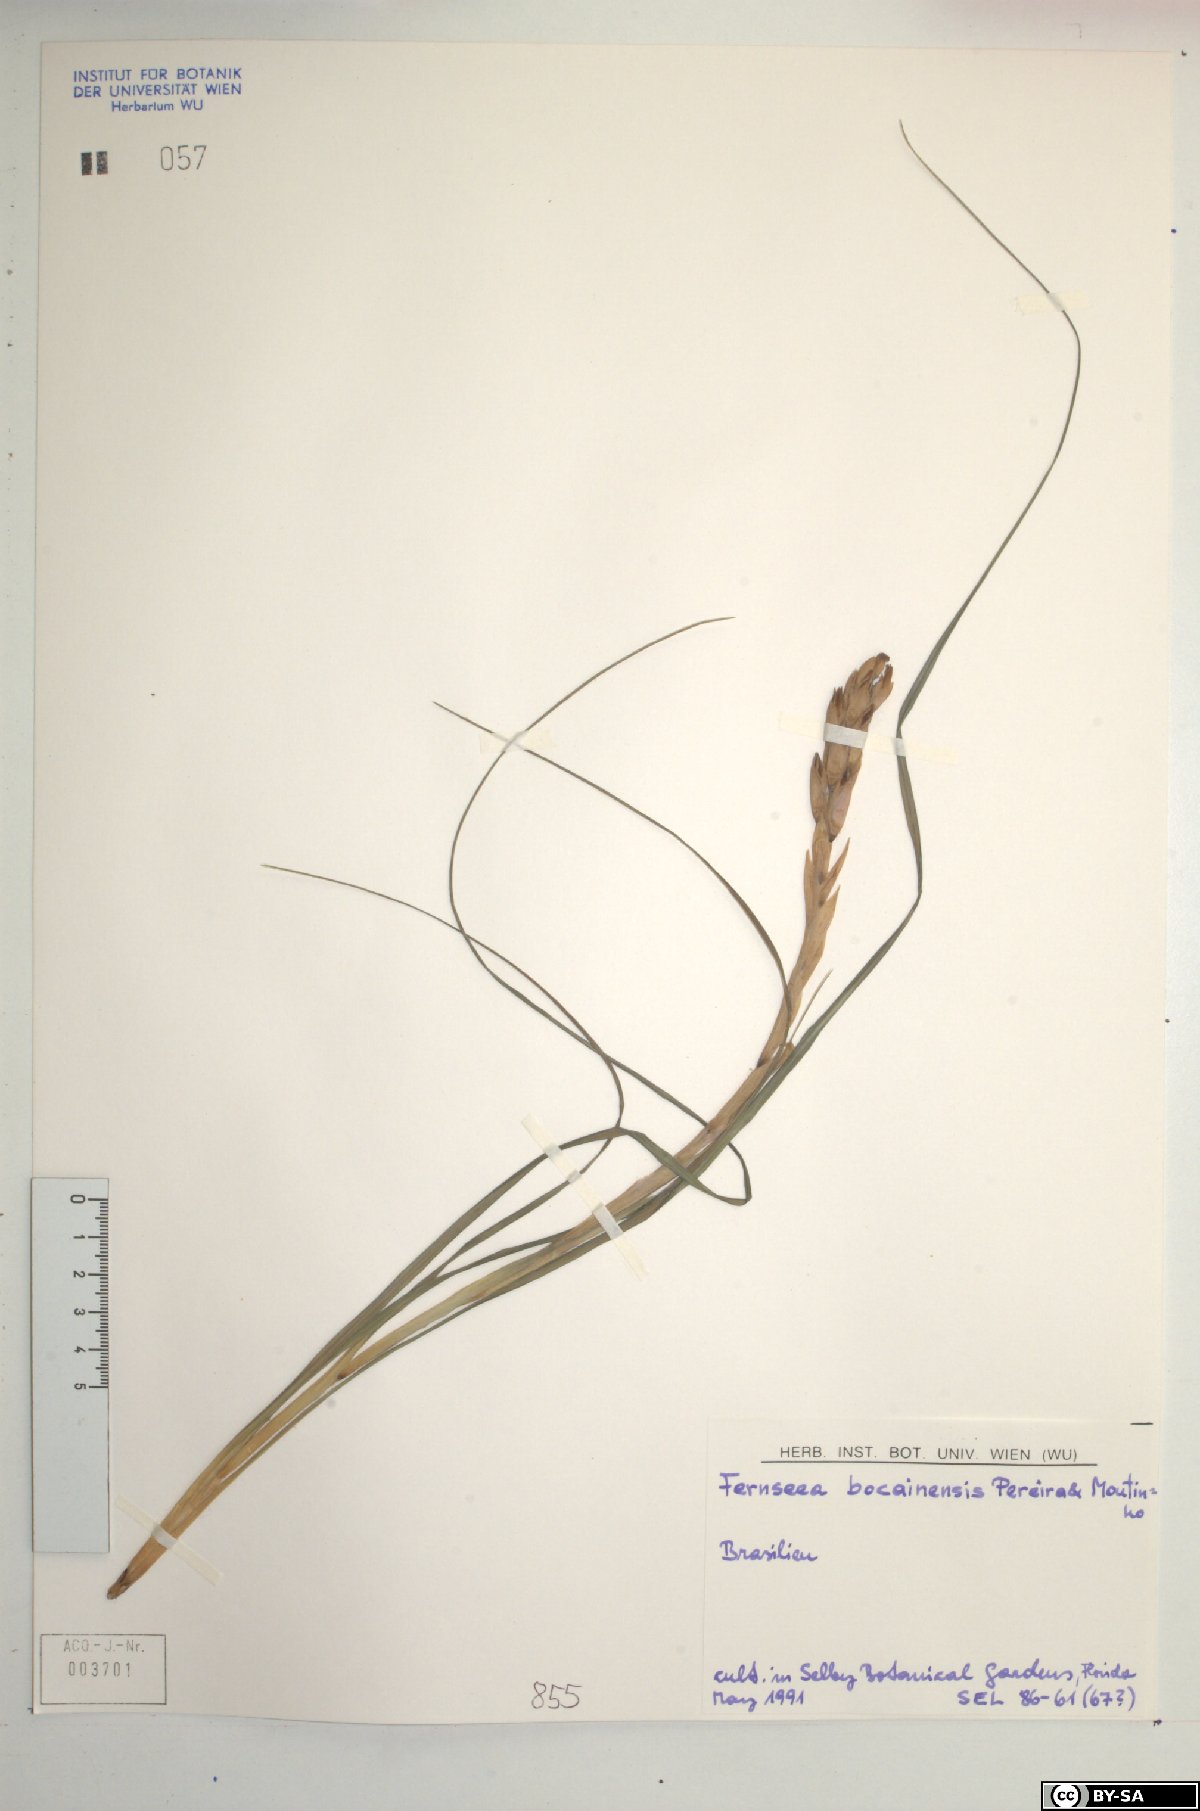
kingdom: Plantae
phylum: Tracheophyta
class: Liliopsida
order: Poales
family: Bromeliaceae
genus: Fernseea
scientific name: Fernseea bocainensis
